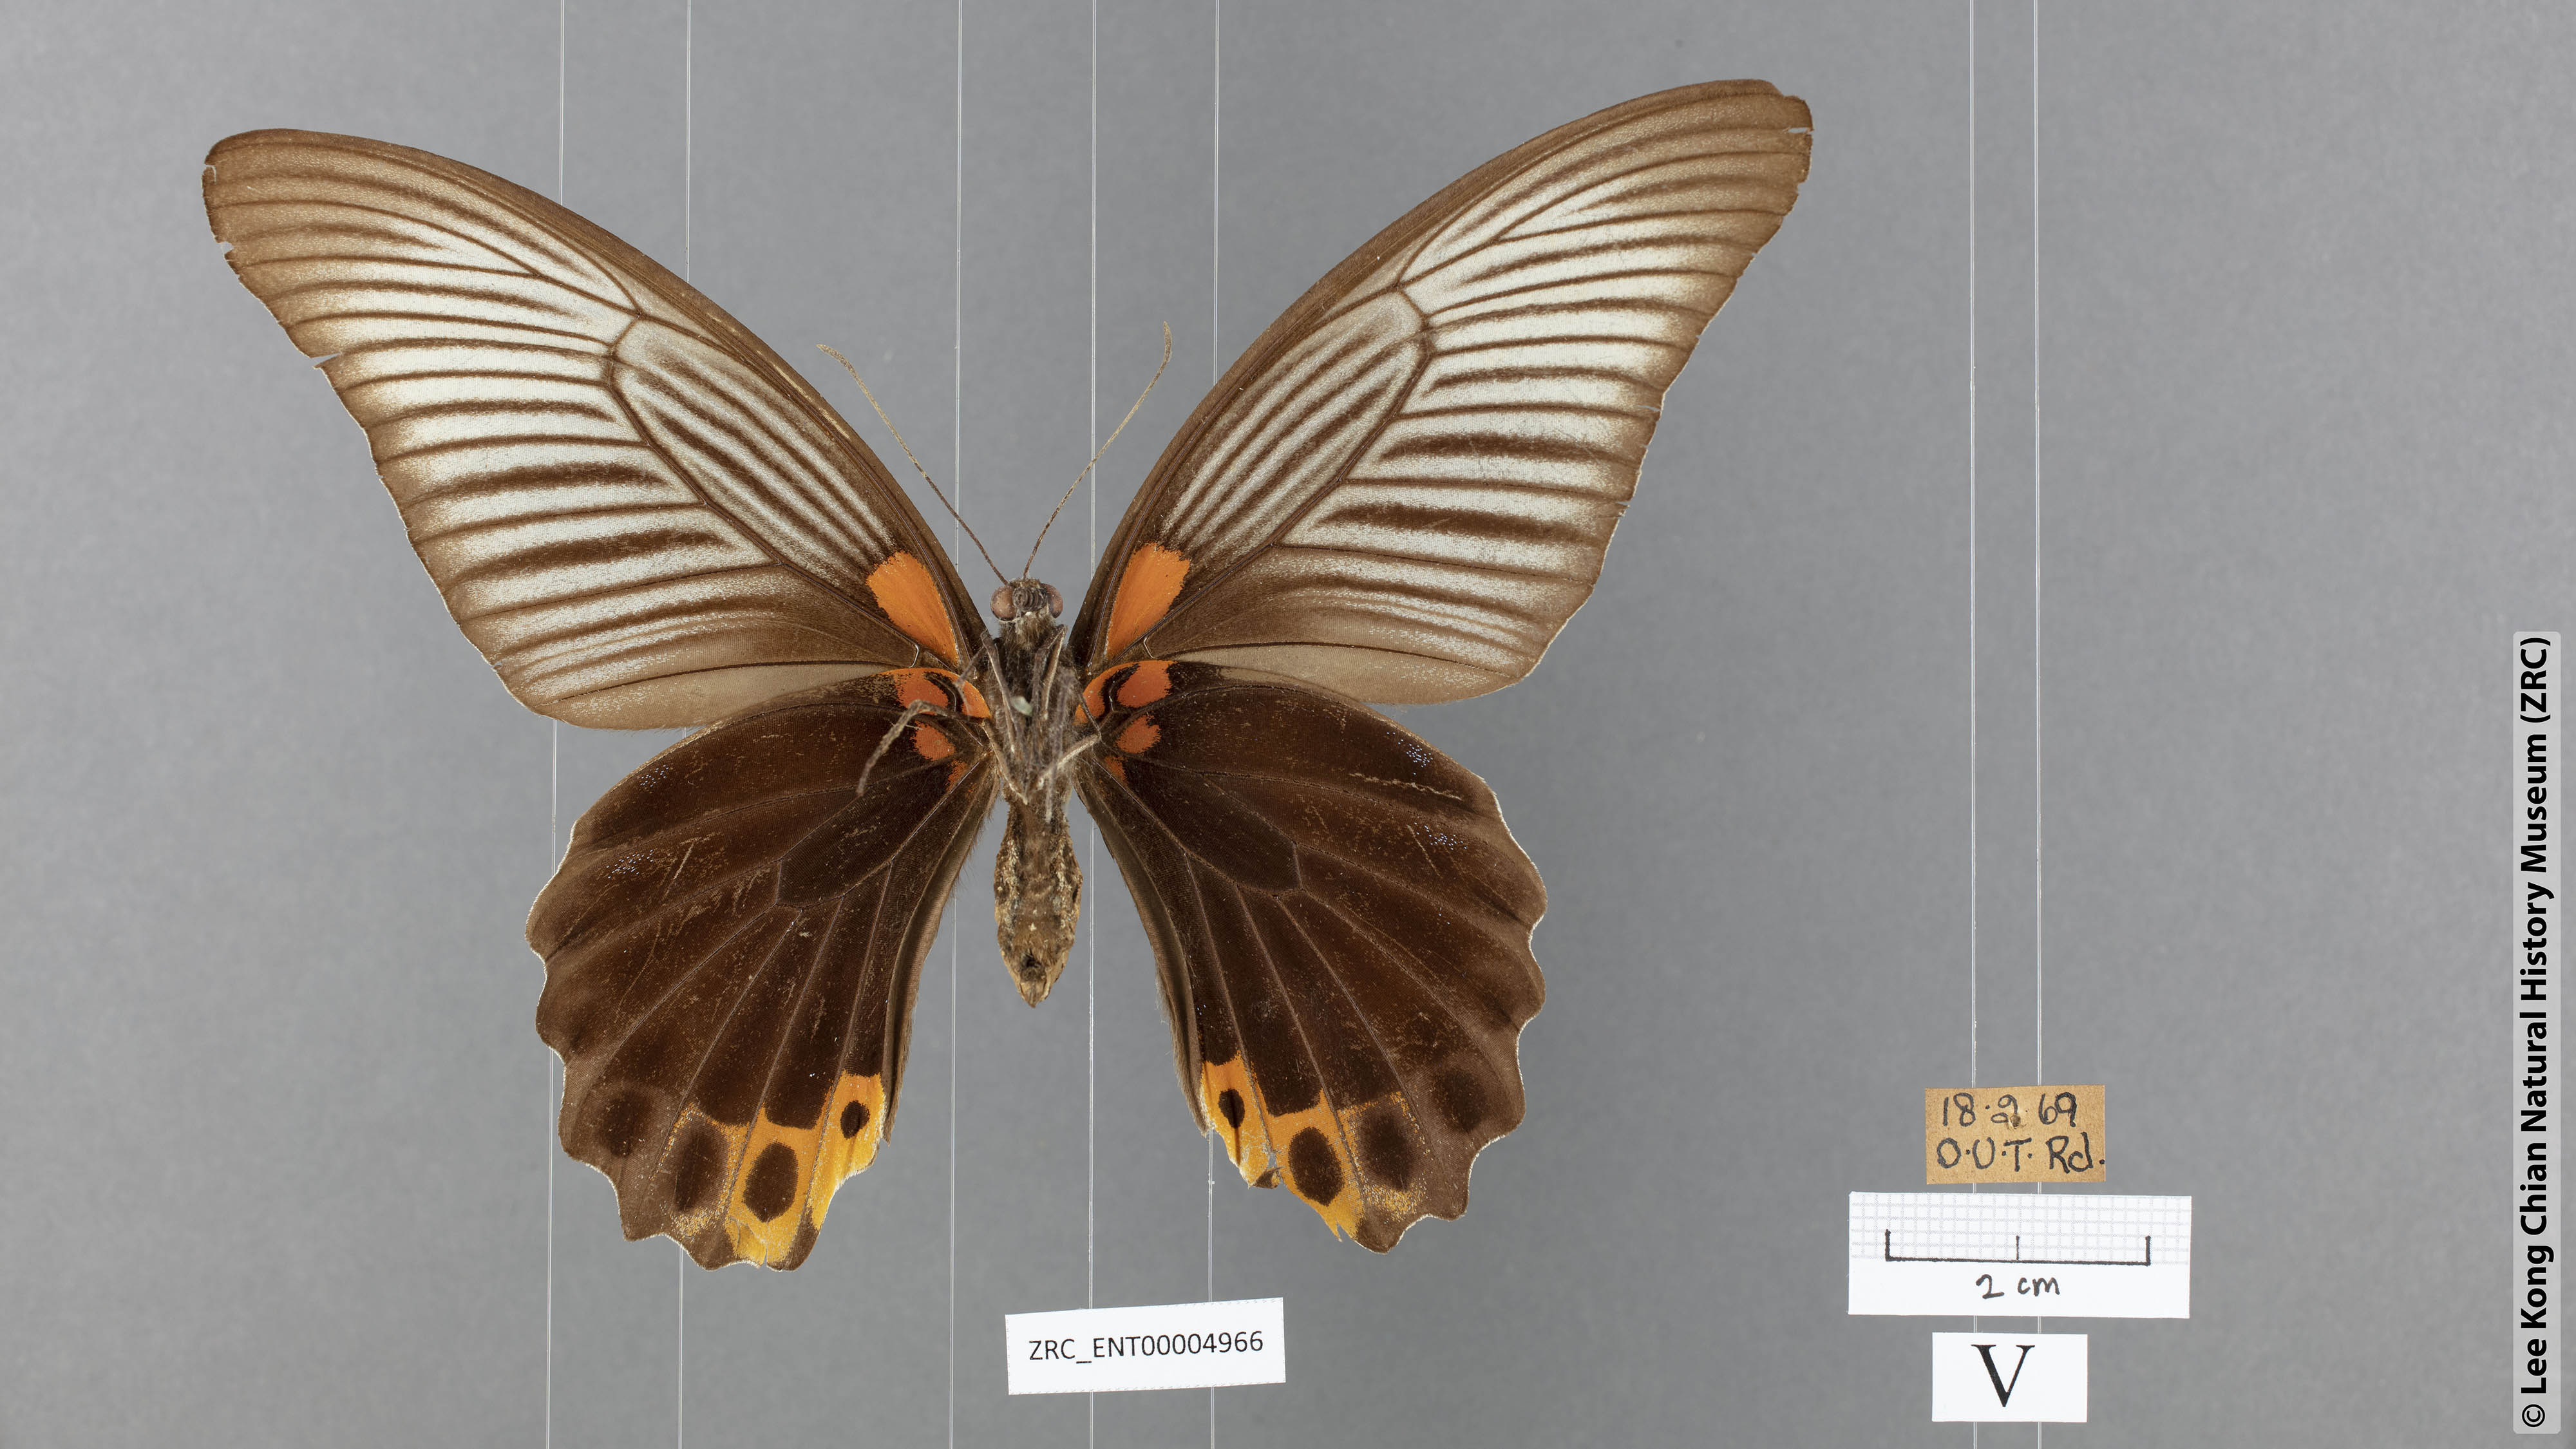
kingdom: Animalia
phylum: Arthropoda
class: Insecta
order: Lepidoptera
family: Papilionidae
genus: Papilio
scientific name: Papilio memnon
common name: Great mormon
